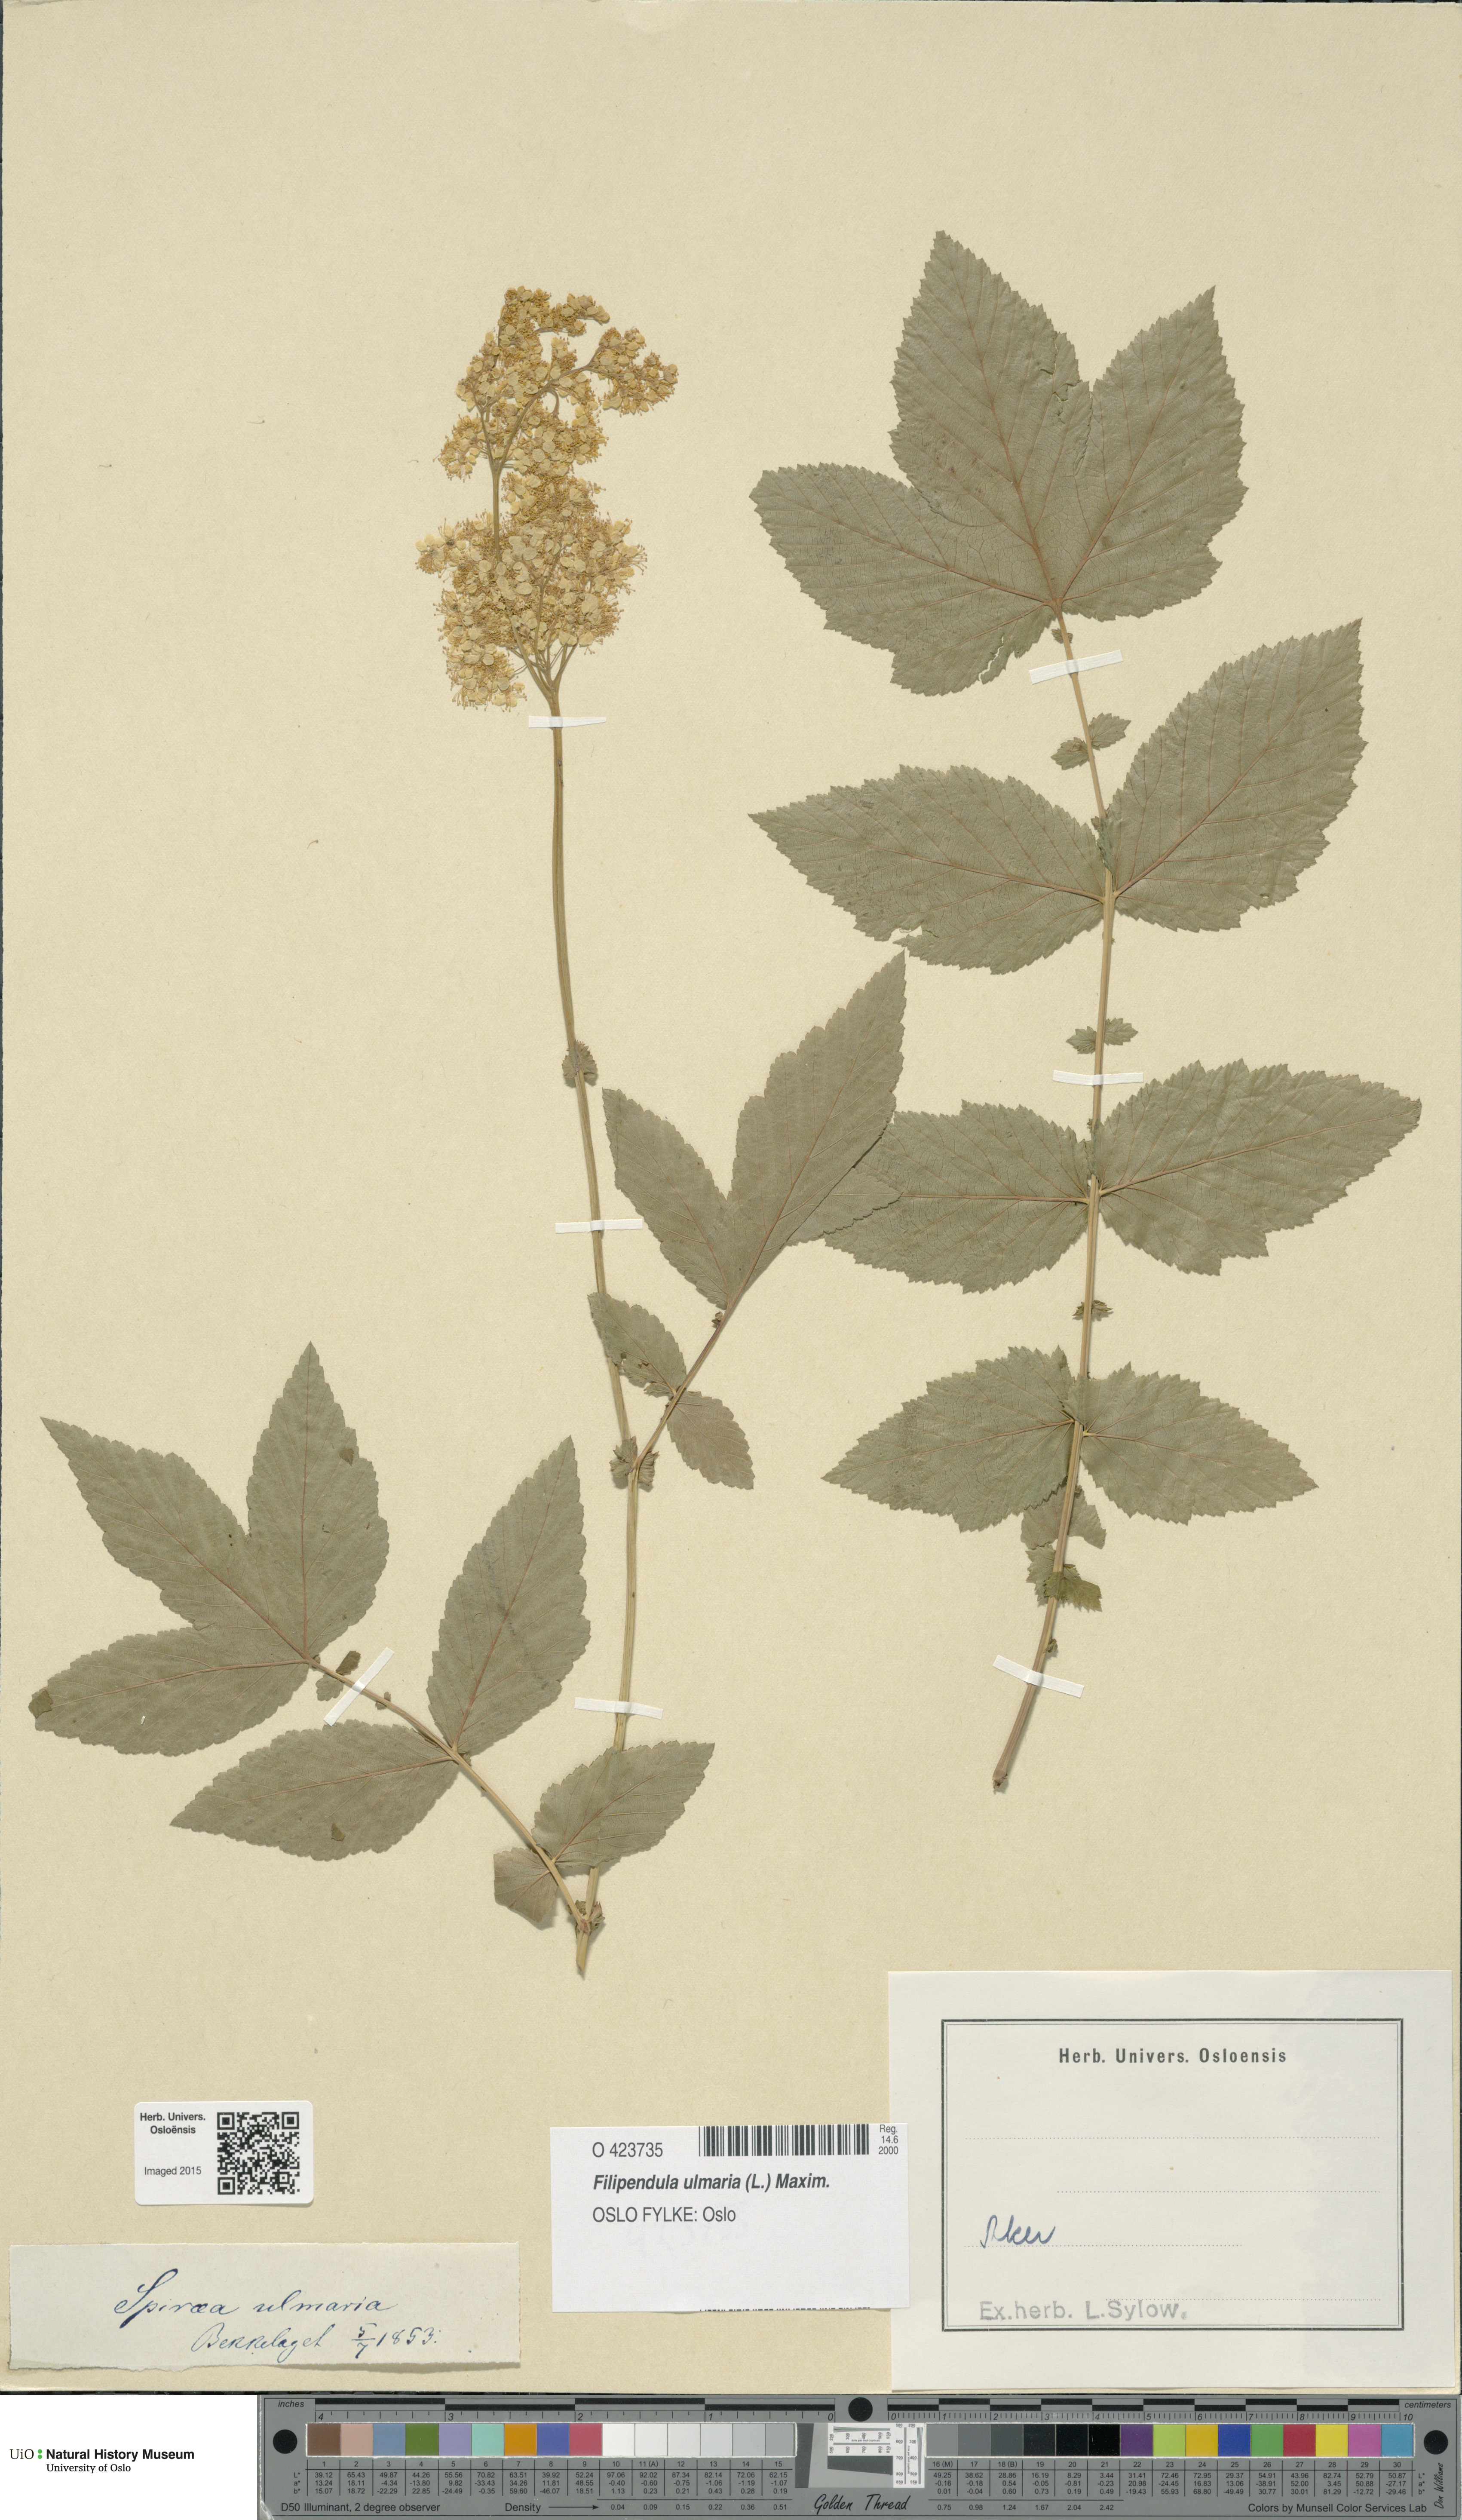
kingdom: Plantae
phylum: Tracheophyta
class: Magnoliopsida
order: Rosales
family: Rosaceae
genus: Filipendula
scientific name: Filipendula ulmaria
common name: Meadowsweet
